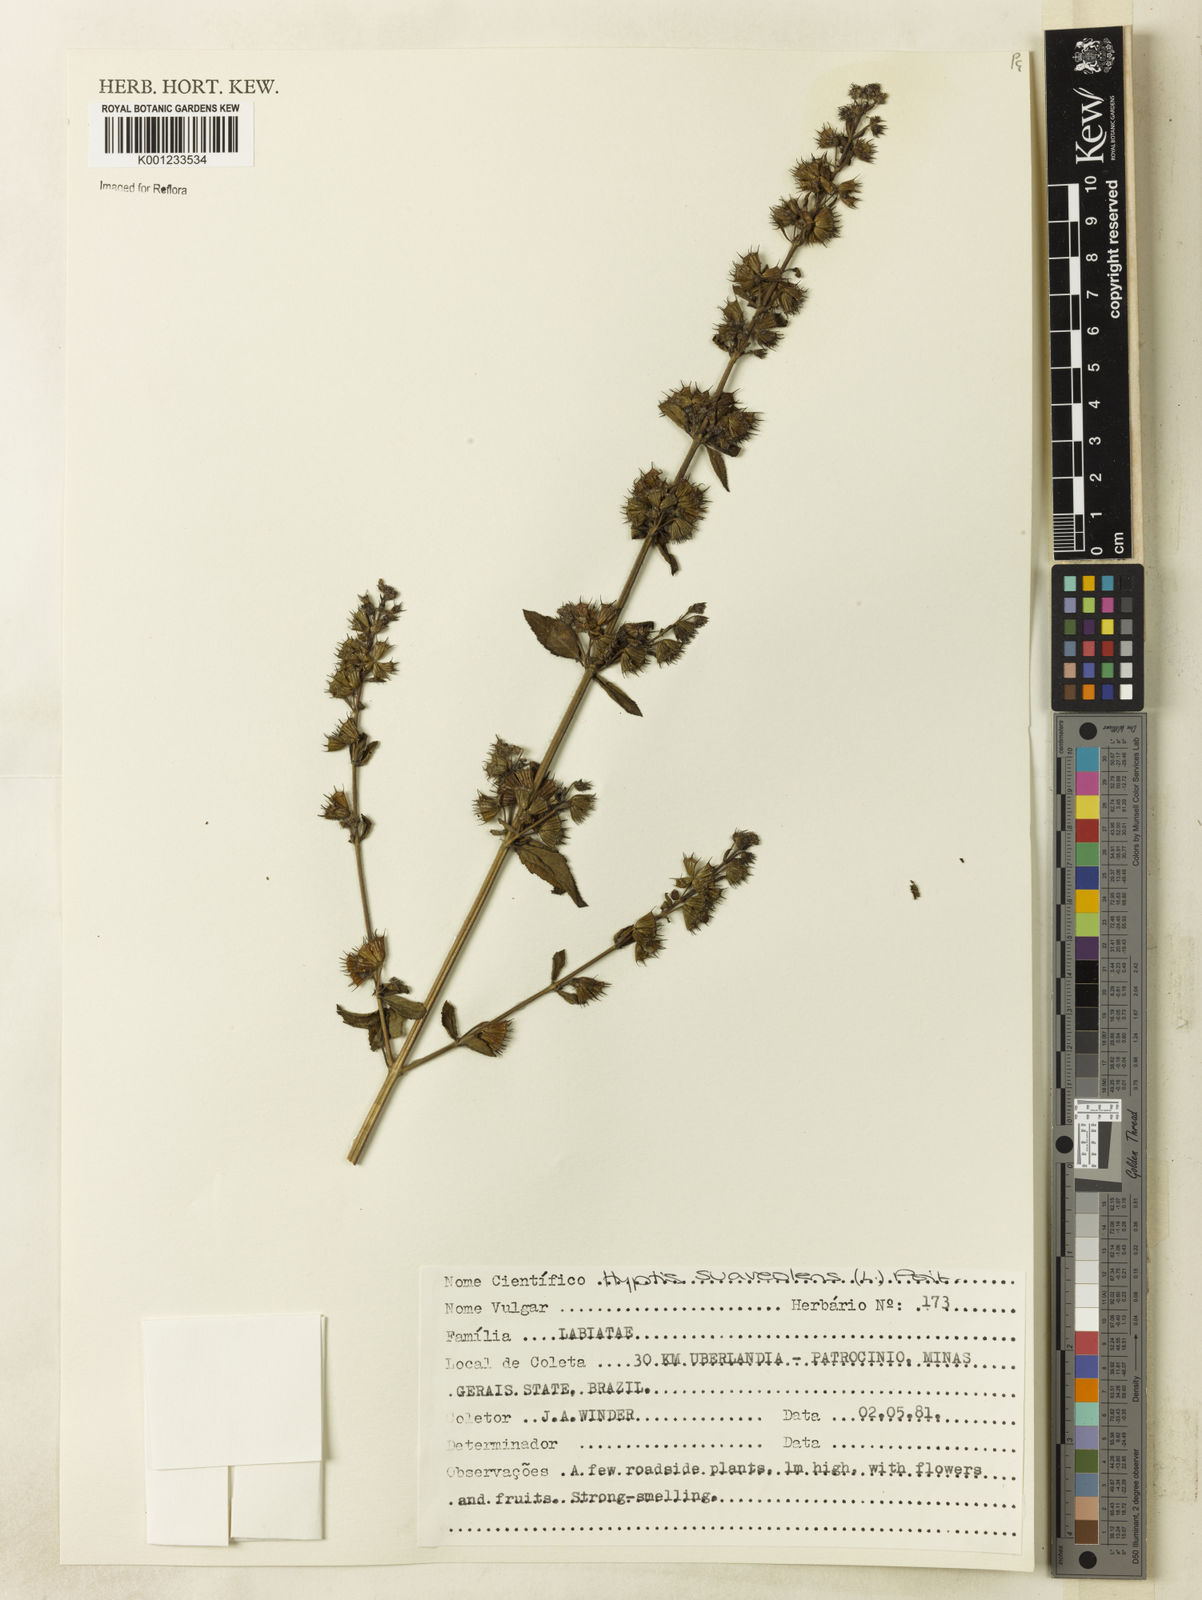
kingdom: Plantae
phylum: Tracheophyta
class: Magnoliopsida
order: Lamiales
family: Lamiaceae
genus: Mesosphaerum
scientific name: Mesosphaerum suaveolens
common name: Pignut
